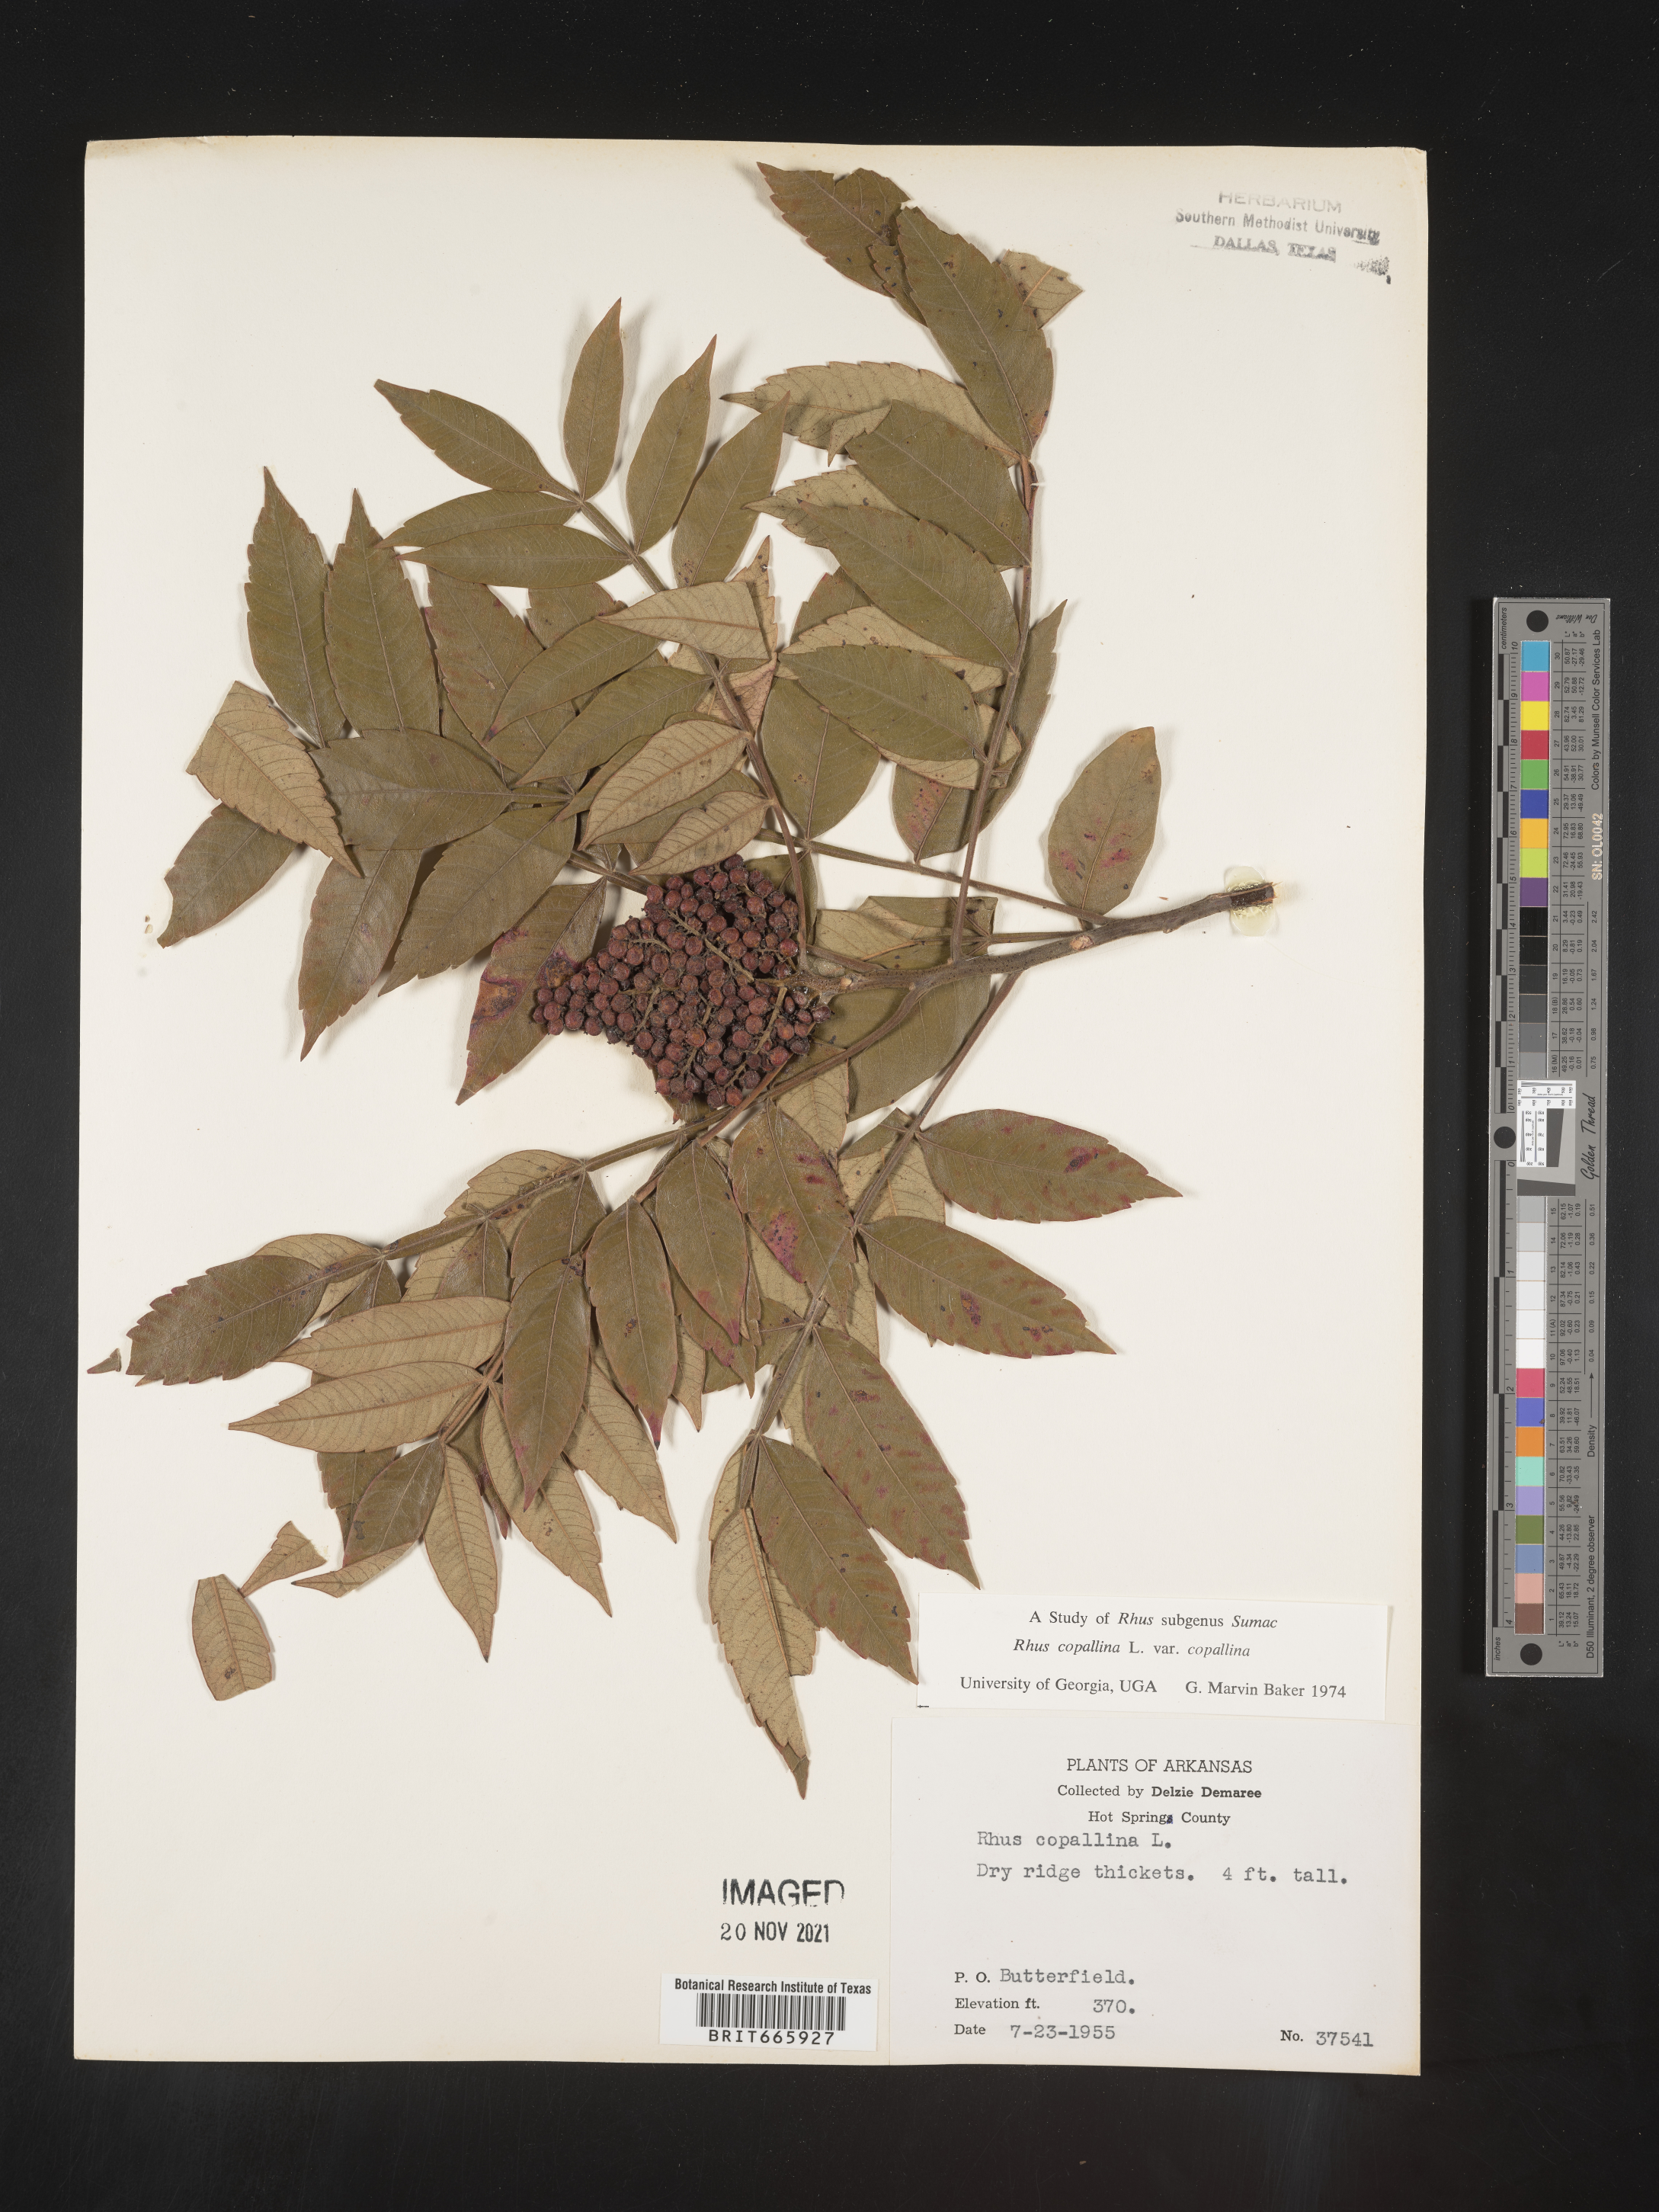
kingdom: Plantae
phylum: Tracheophyta
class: Magnoliopsida
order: Sapindales
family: Anacardiaceae
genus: Rhus
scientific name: Rhus copallina
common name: Shining sumac
